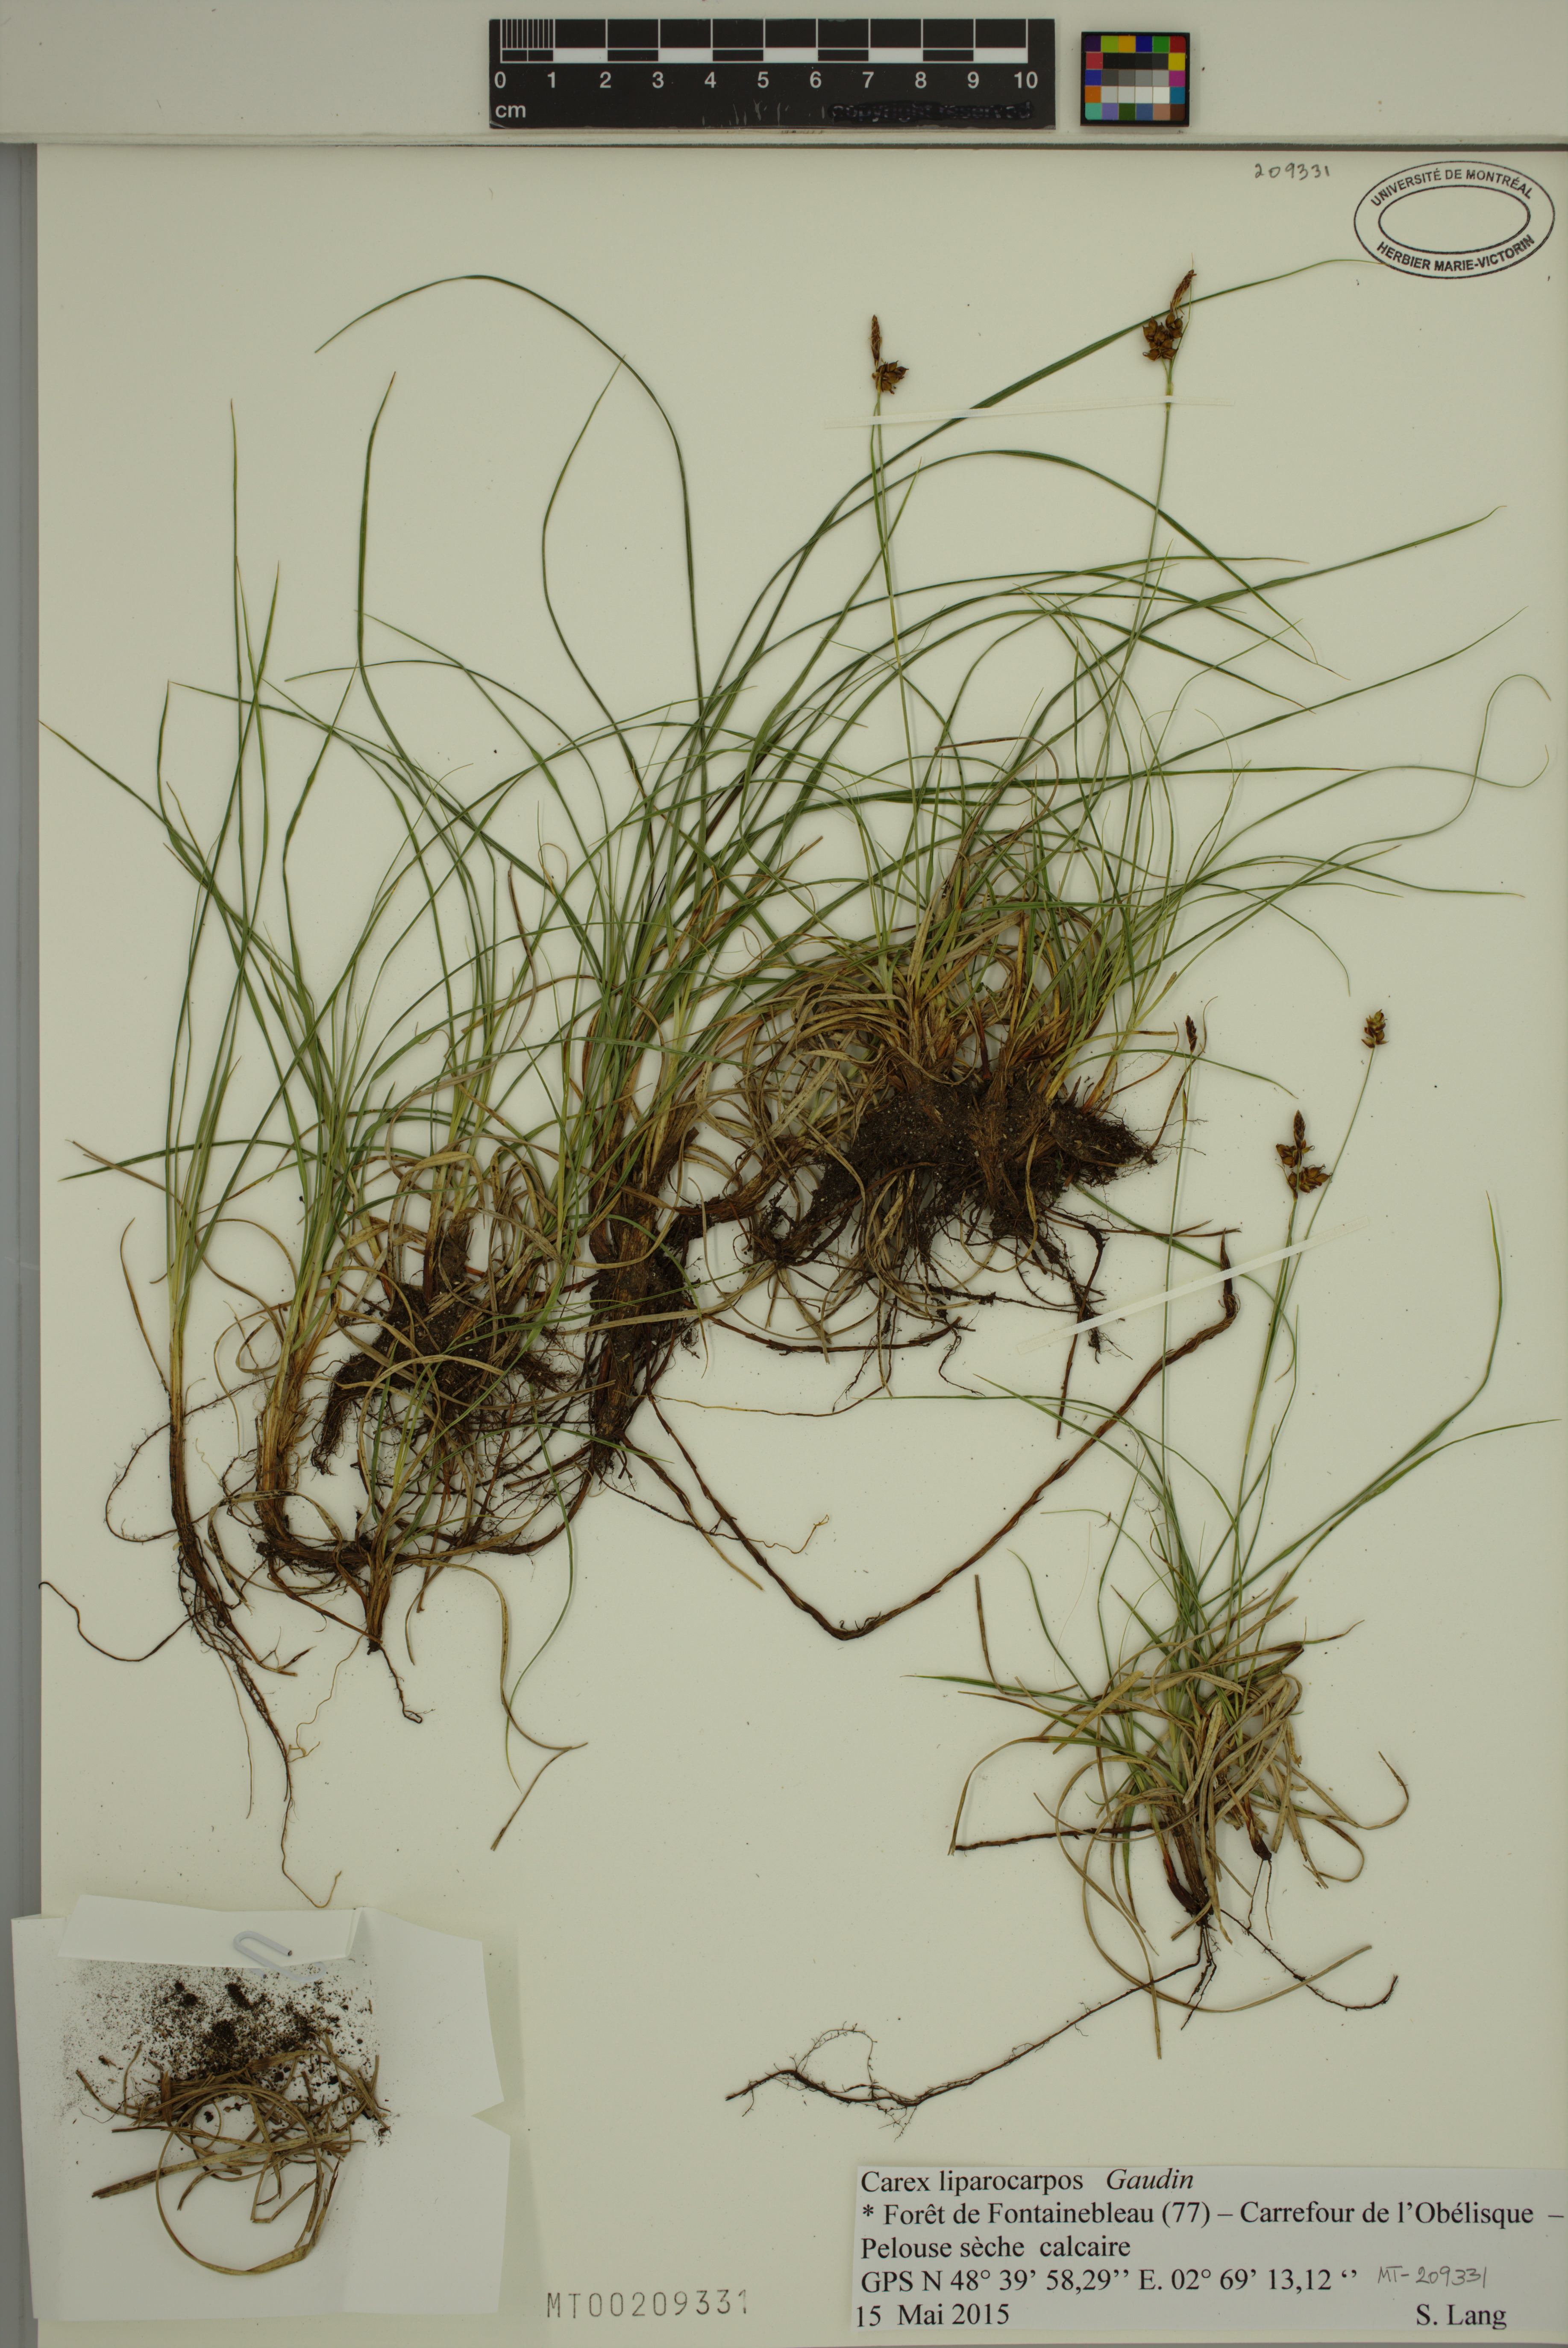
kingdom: Plantae
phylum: Tracheophyta
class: Liliopsida
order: Poales
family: Cyperaceae
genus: Carex
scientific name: Carex liparocarpos
